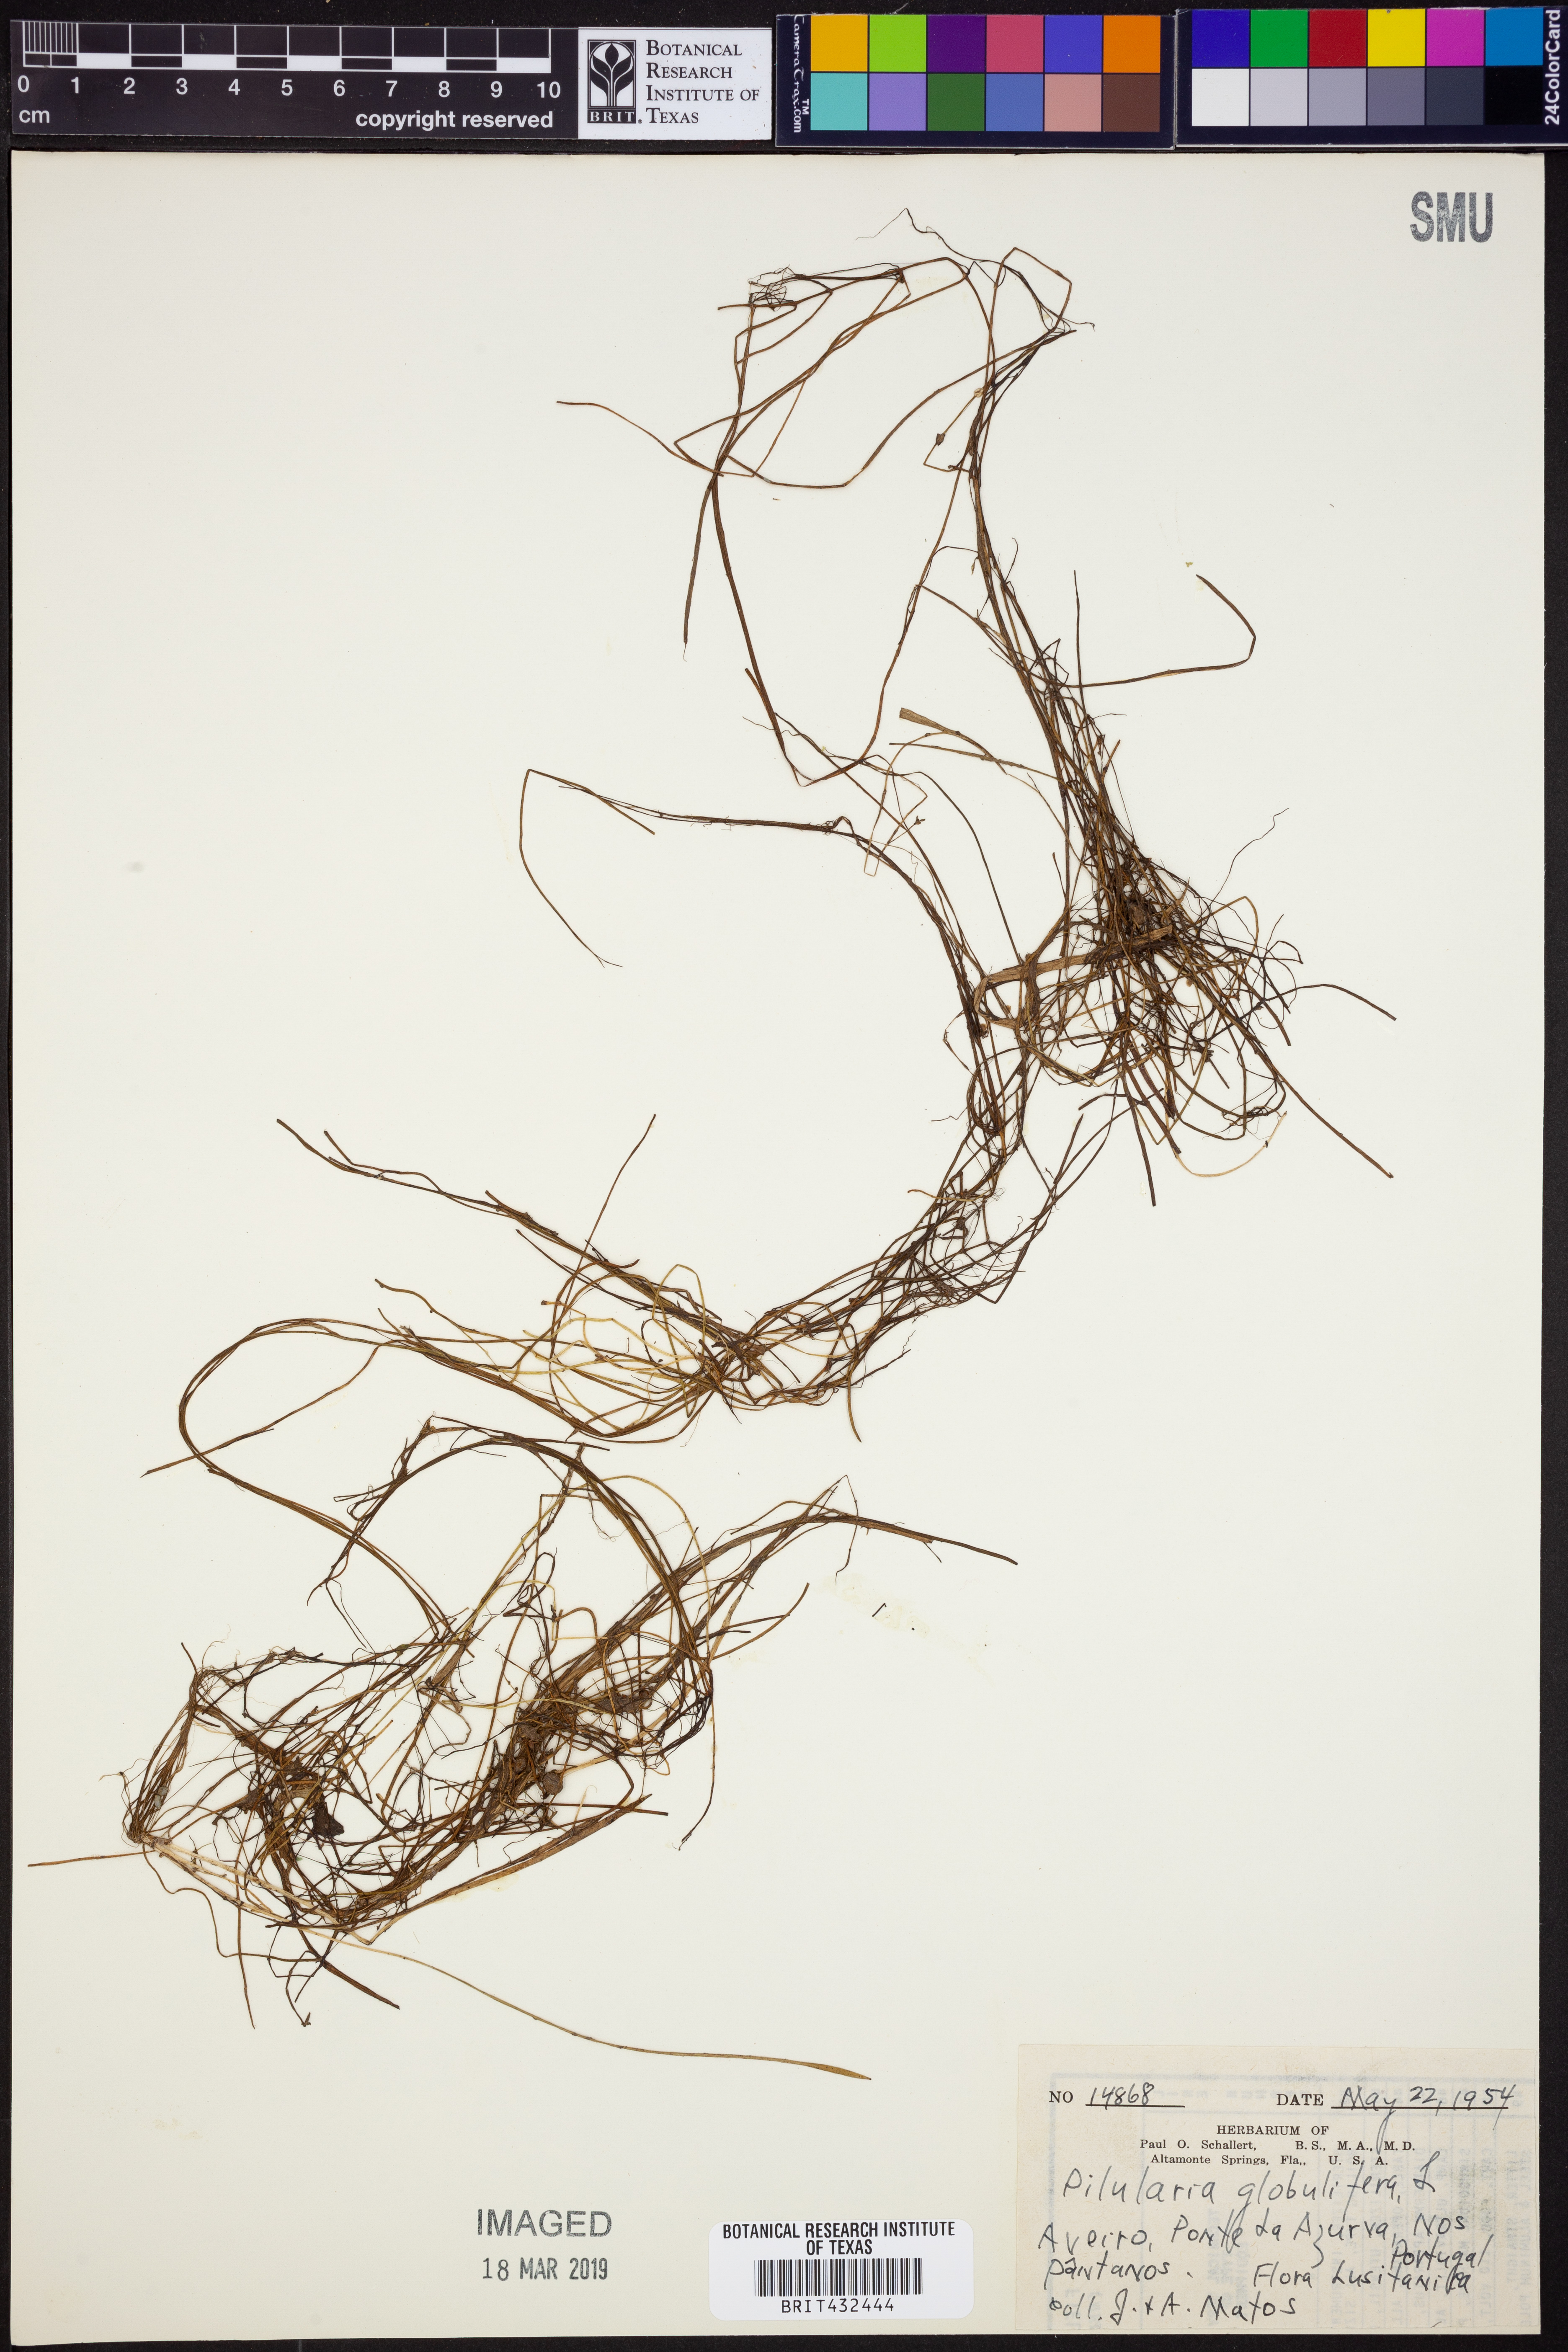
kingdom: Plantae
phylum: Tracheophyta
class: Polypodiopsida
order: Salviniales
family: Marsileaceae
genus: Pilularia
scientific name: Pilularia globulifera
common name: Pillwort
